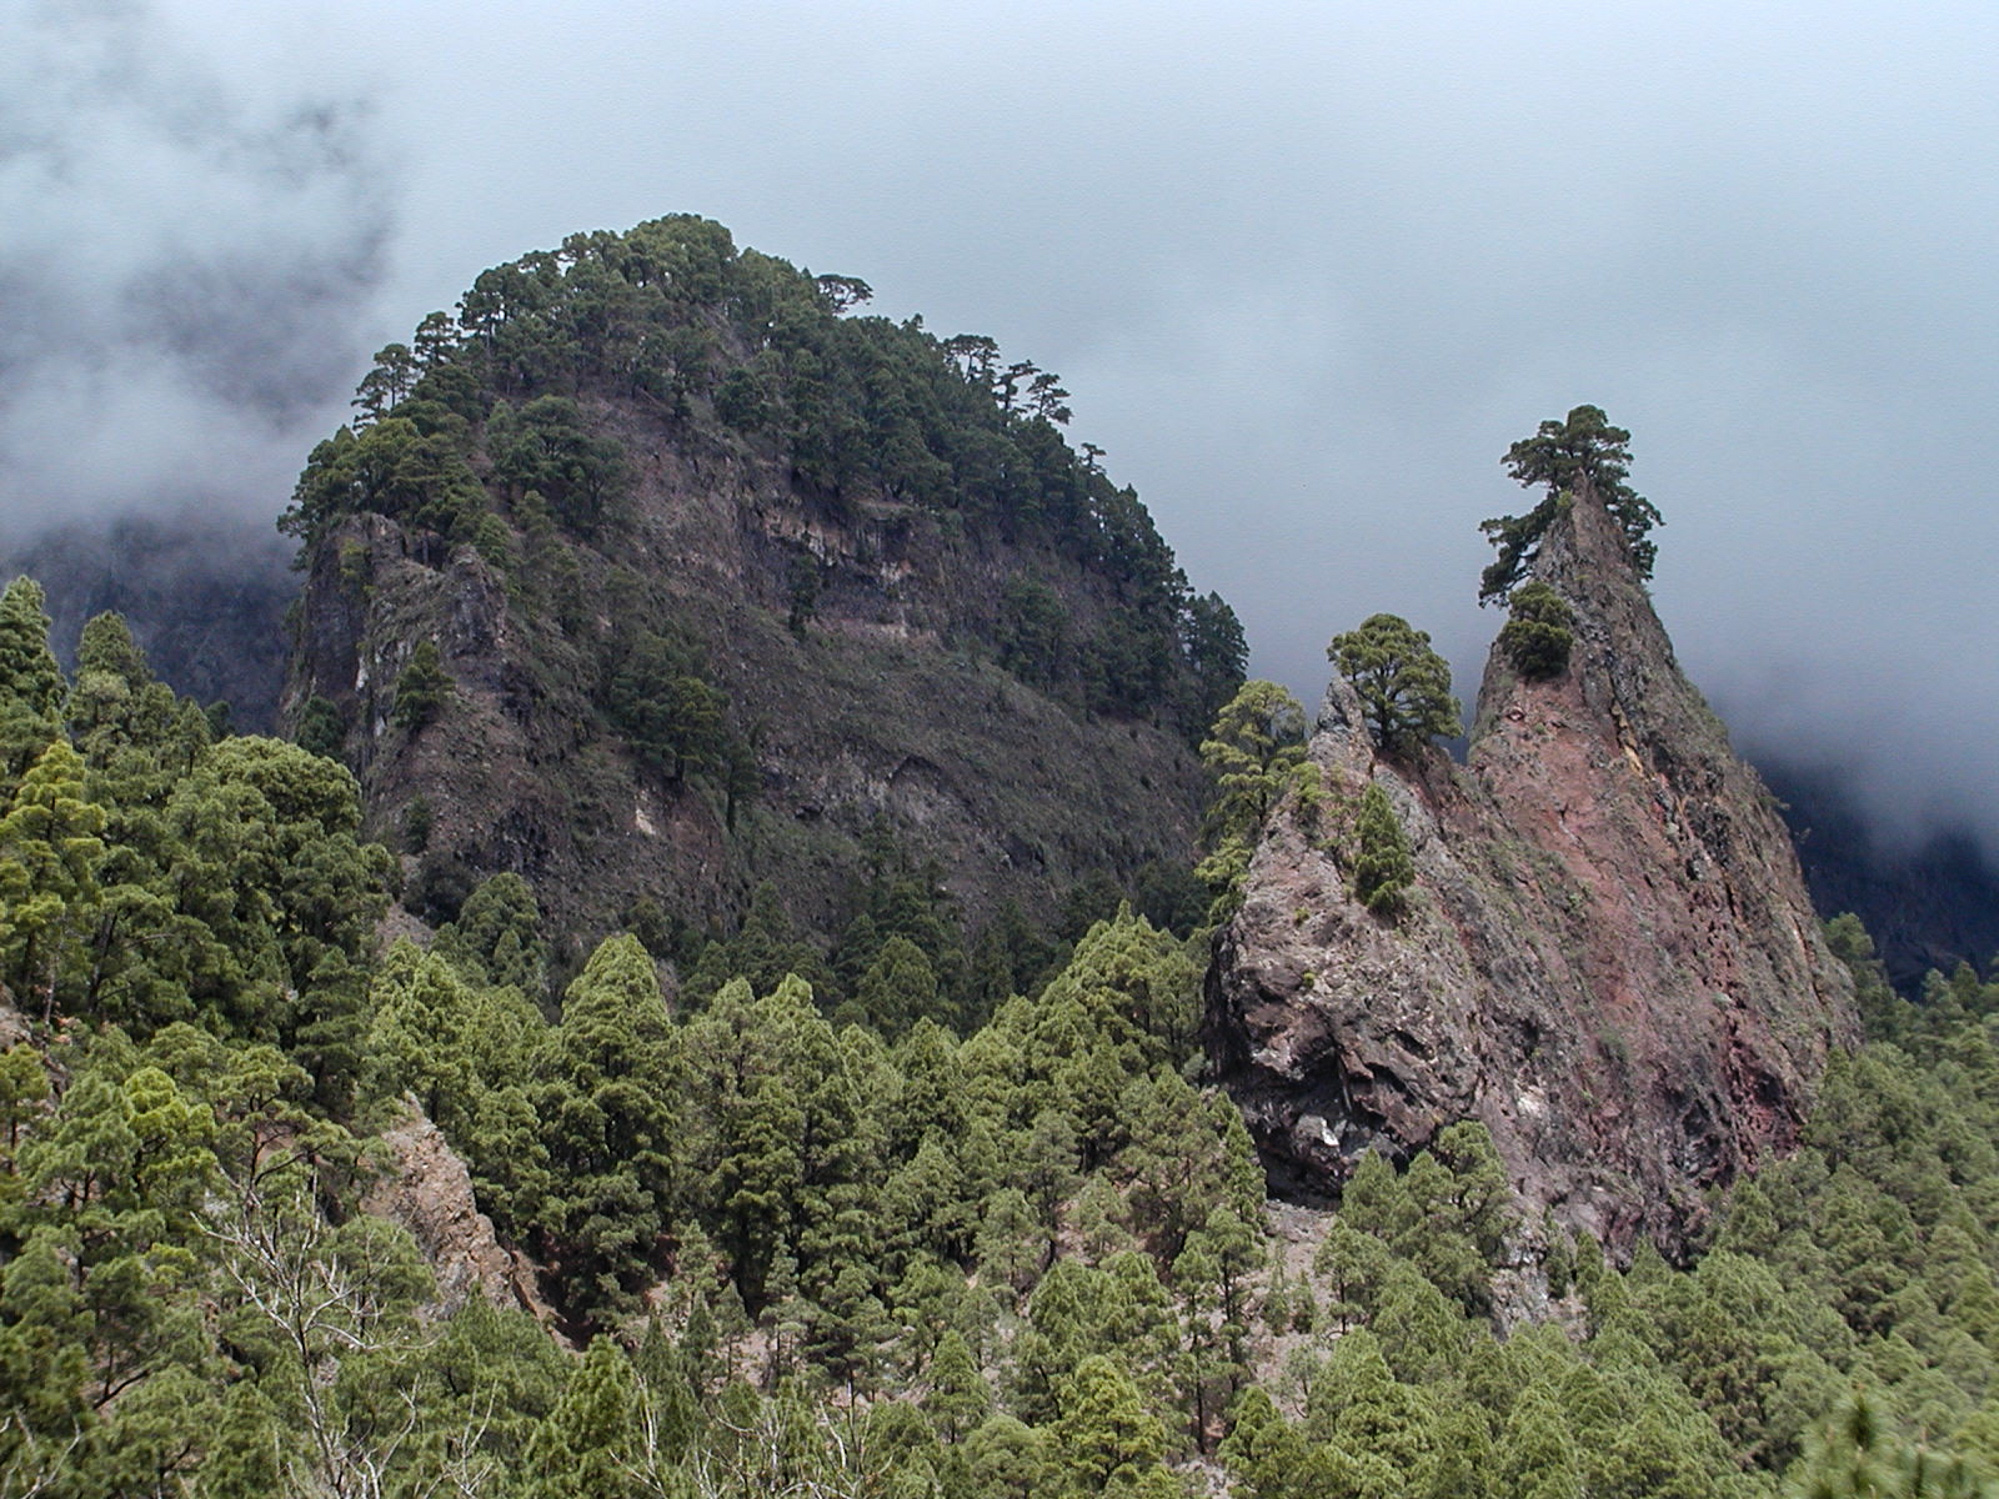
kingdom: Plantae
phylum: Tracheophyta
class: Pinopsida
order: Pinales
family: Pinaceae
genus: Pinus
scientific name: Pinus canariensis
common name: Canary islands pine
